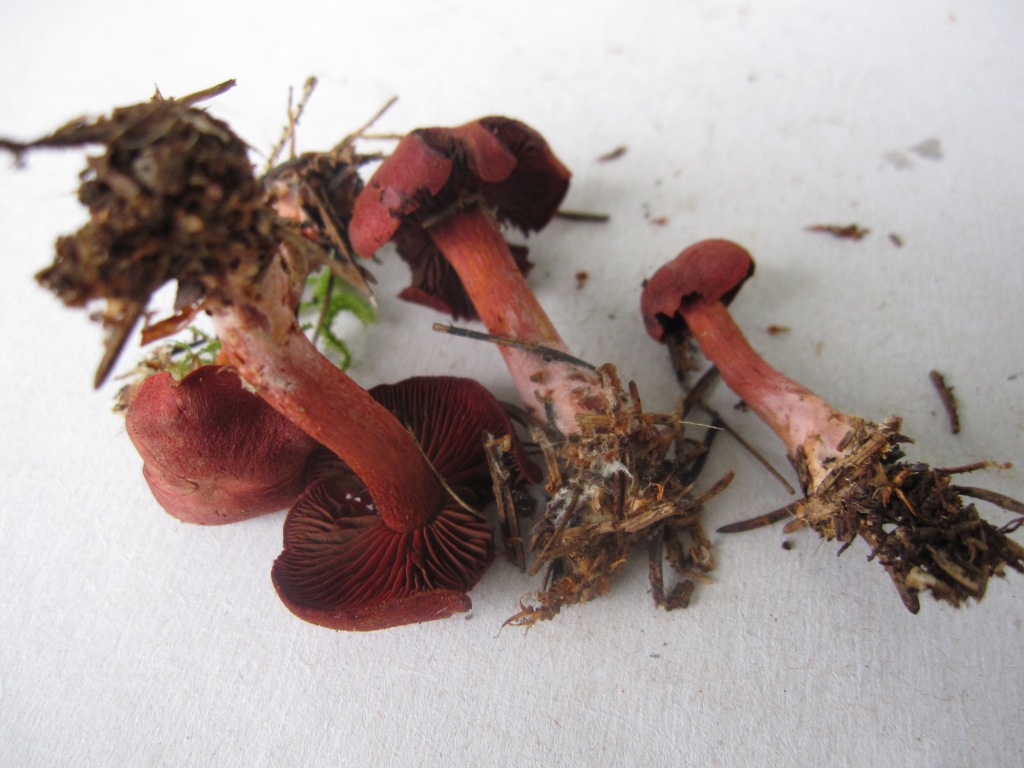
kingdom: Fungi
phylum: Basidiomycota
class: Agaricomycetes
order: Agaricales
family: Cortinariaceae
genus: Cortinarius
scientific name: Cortinarius sanguineus
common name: blodrød slørhat
